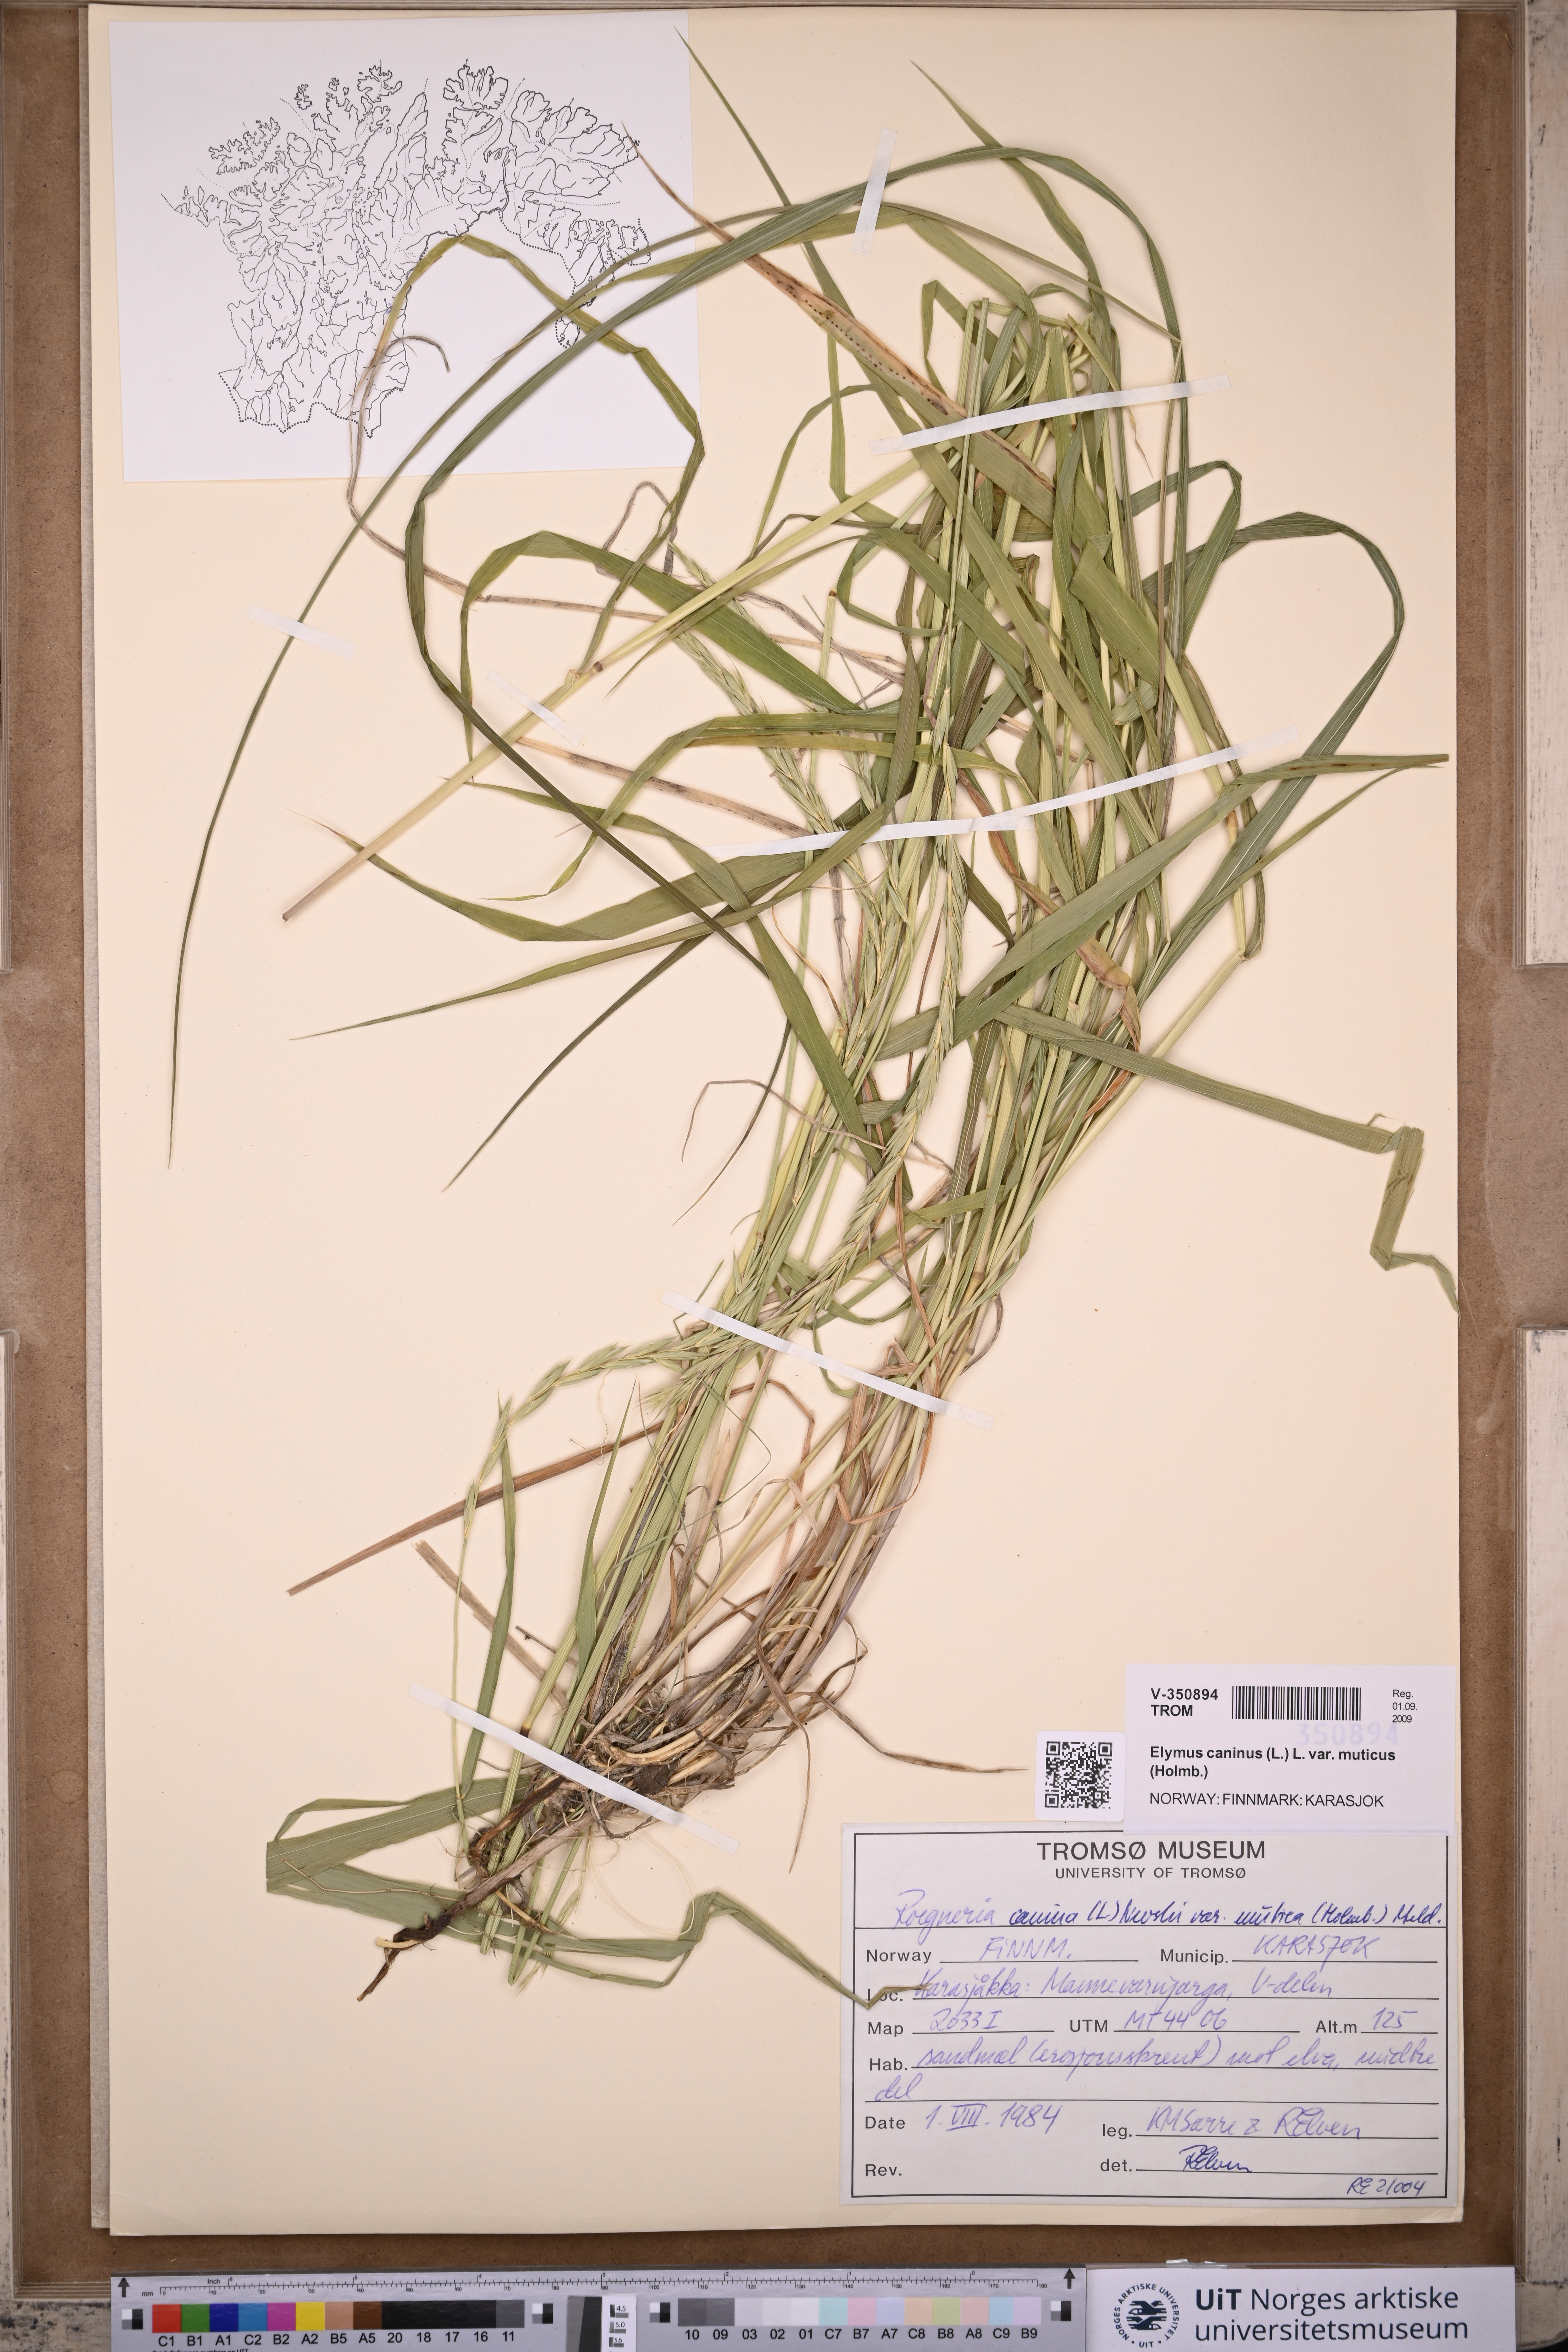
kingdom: Plantae
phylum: Tracheophyta
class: Liliopsida
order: Poales
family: Poaceae
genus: Elymus
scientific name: Elymus caninus
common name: Bearded couch
